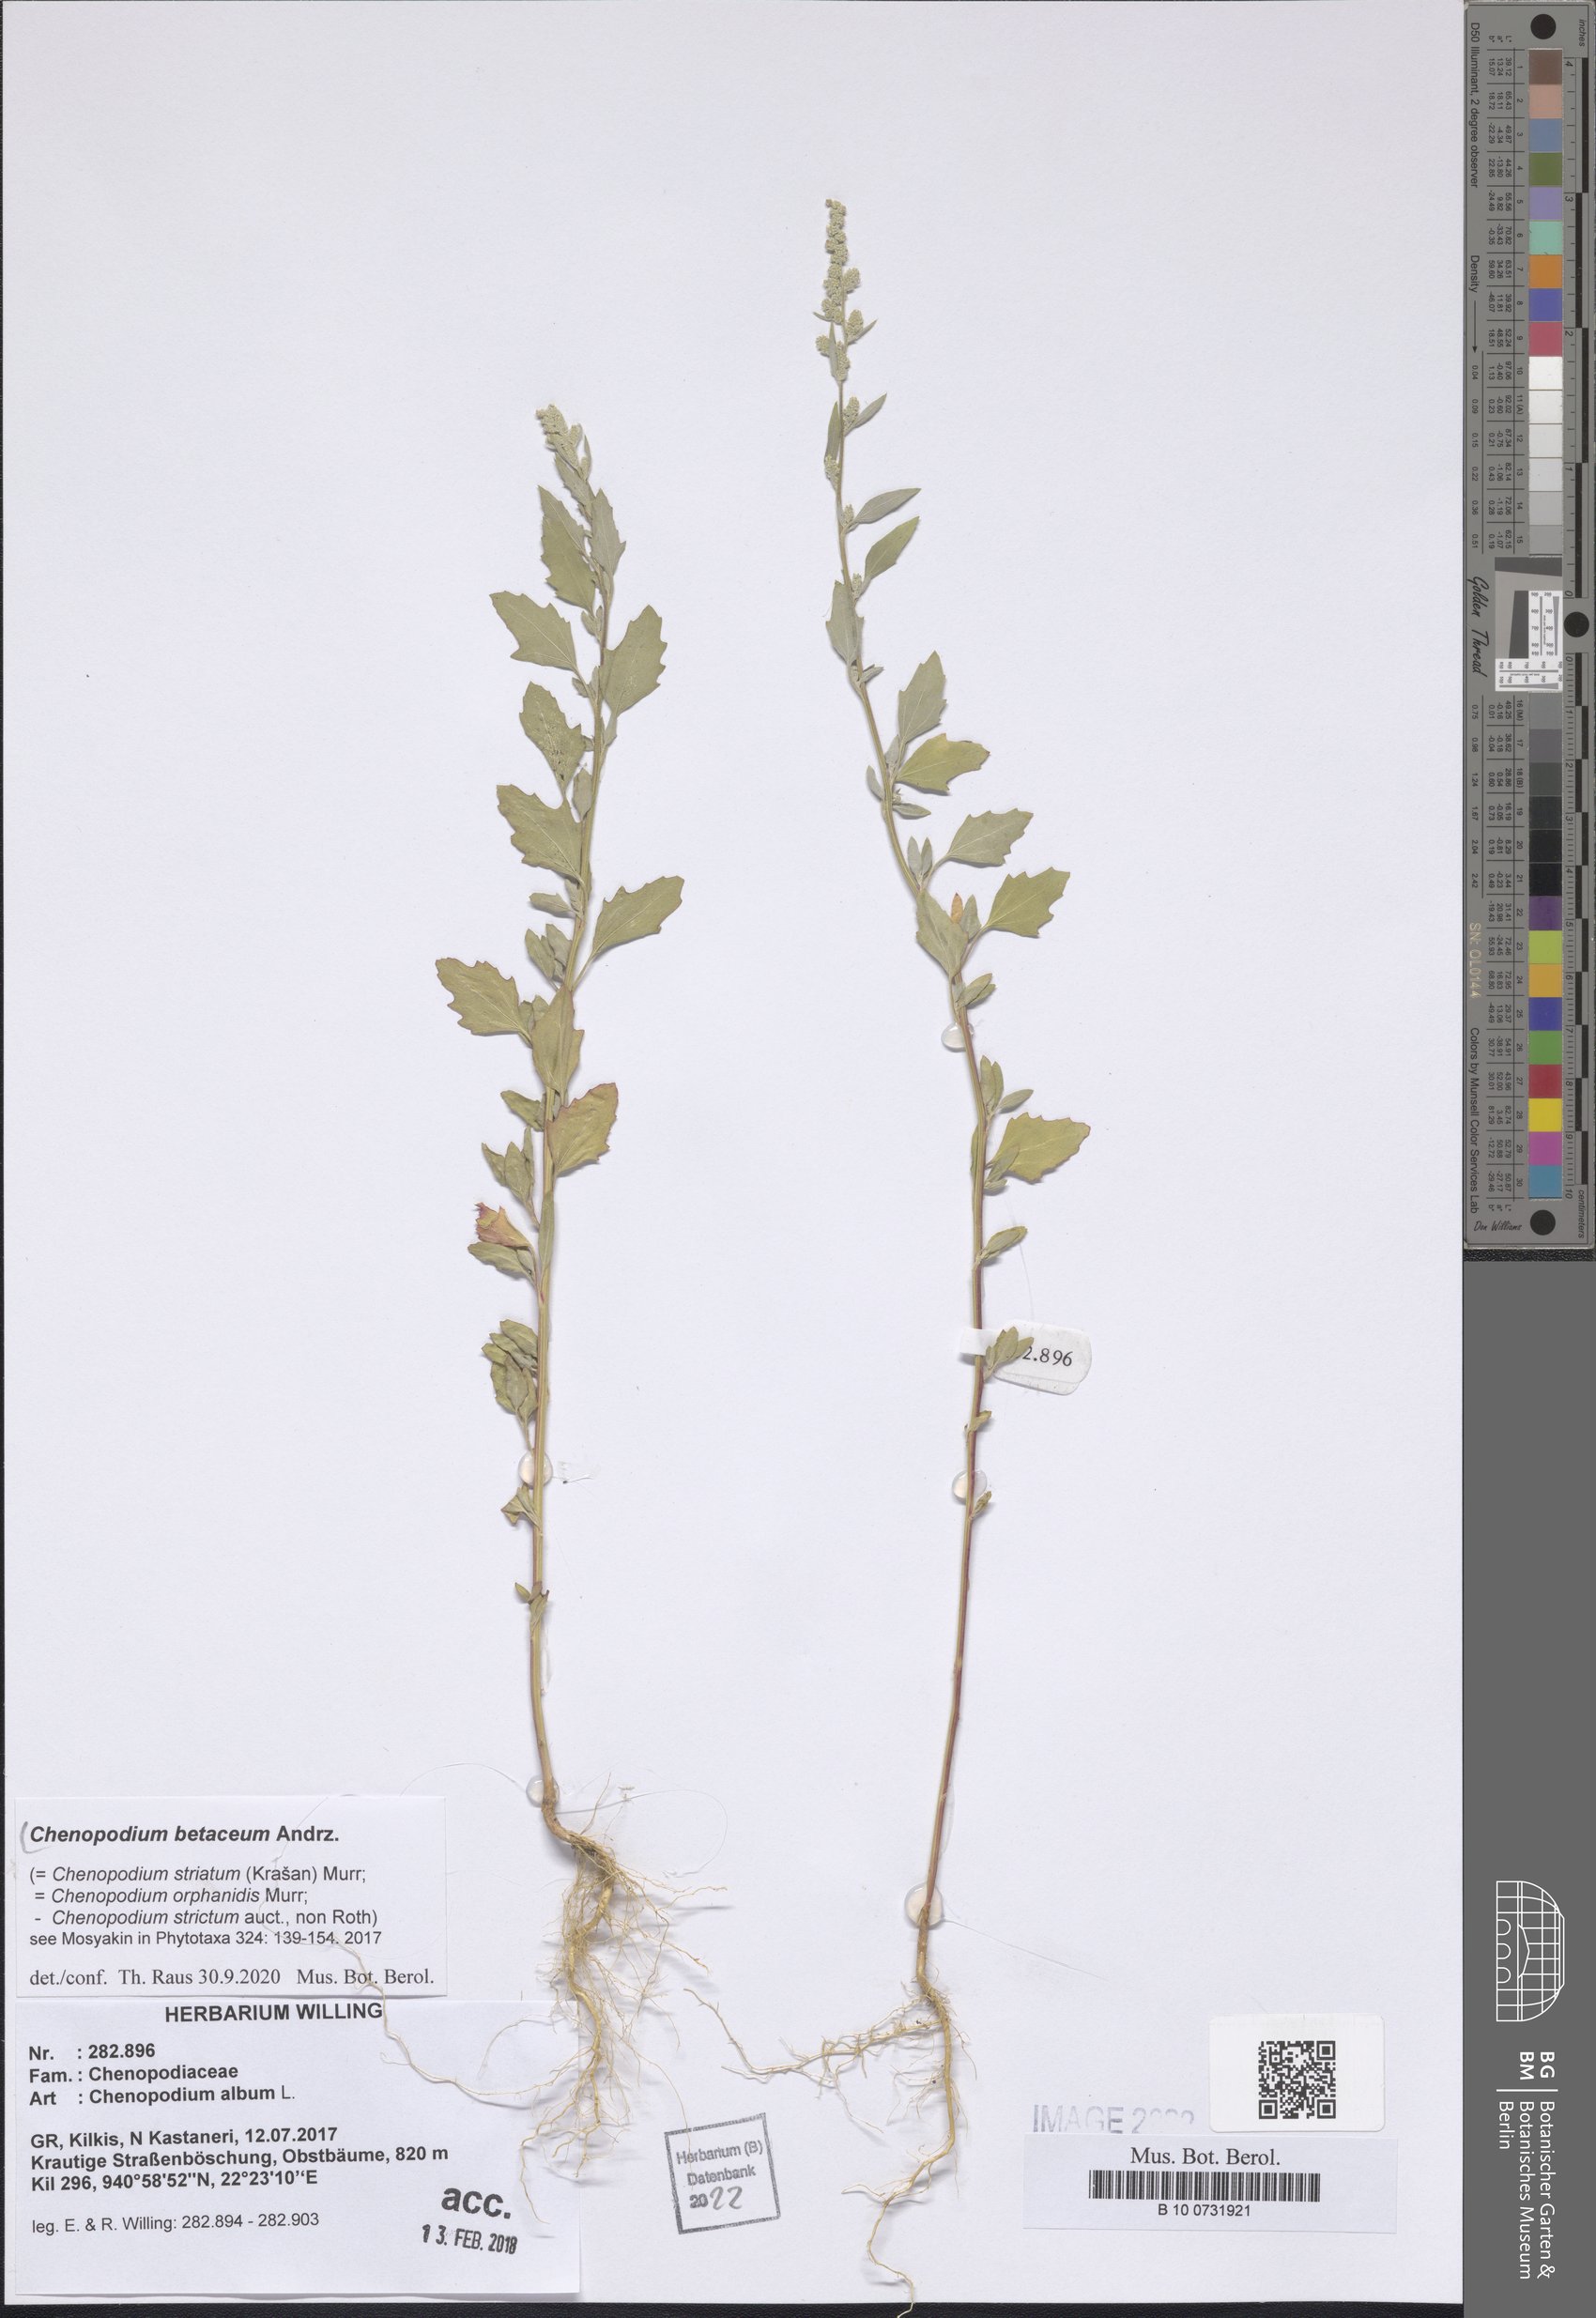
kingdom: Plantae
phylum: Tracheophyta
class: Magnoliopsida
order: Caryophyllales
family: Amaranthaceae
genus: Chenopodium
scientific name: Chenopodium betaceum
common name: Striped goosefoot
